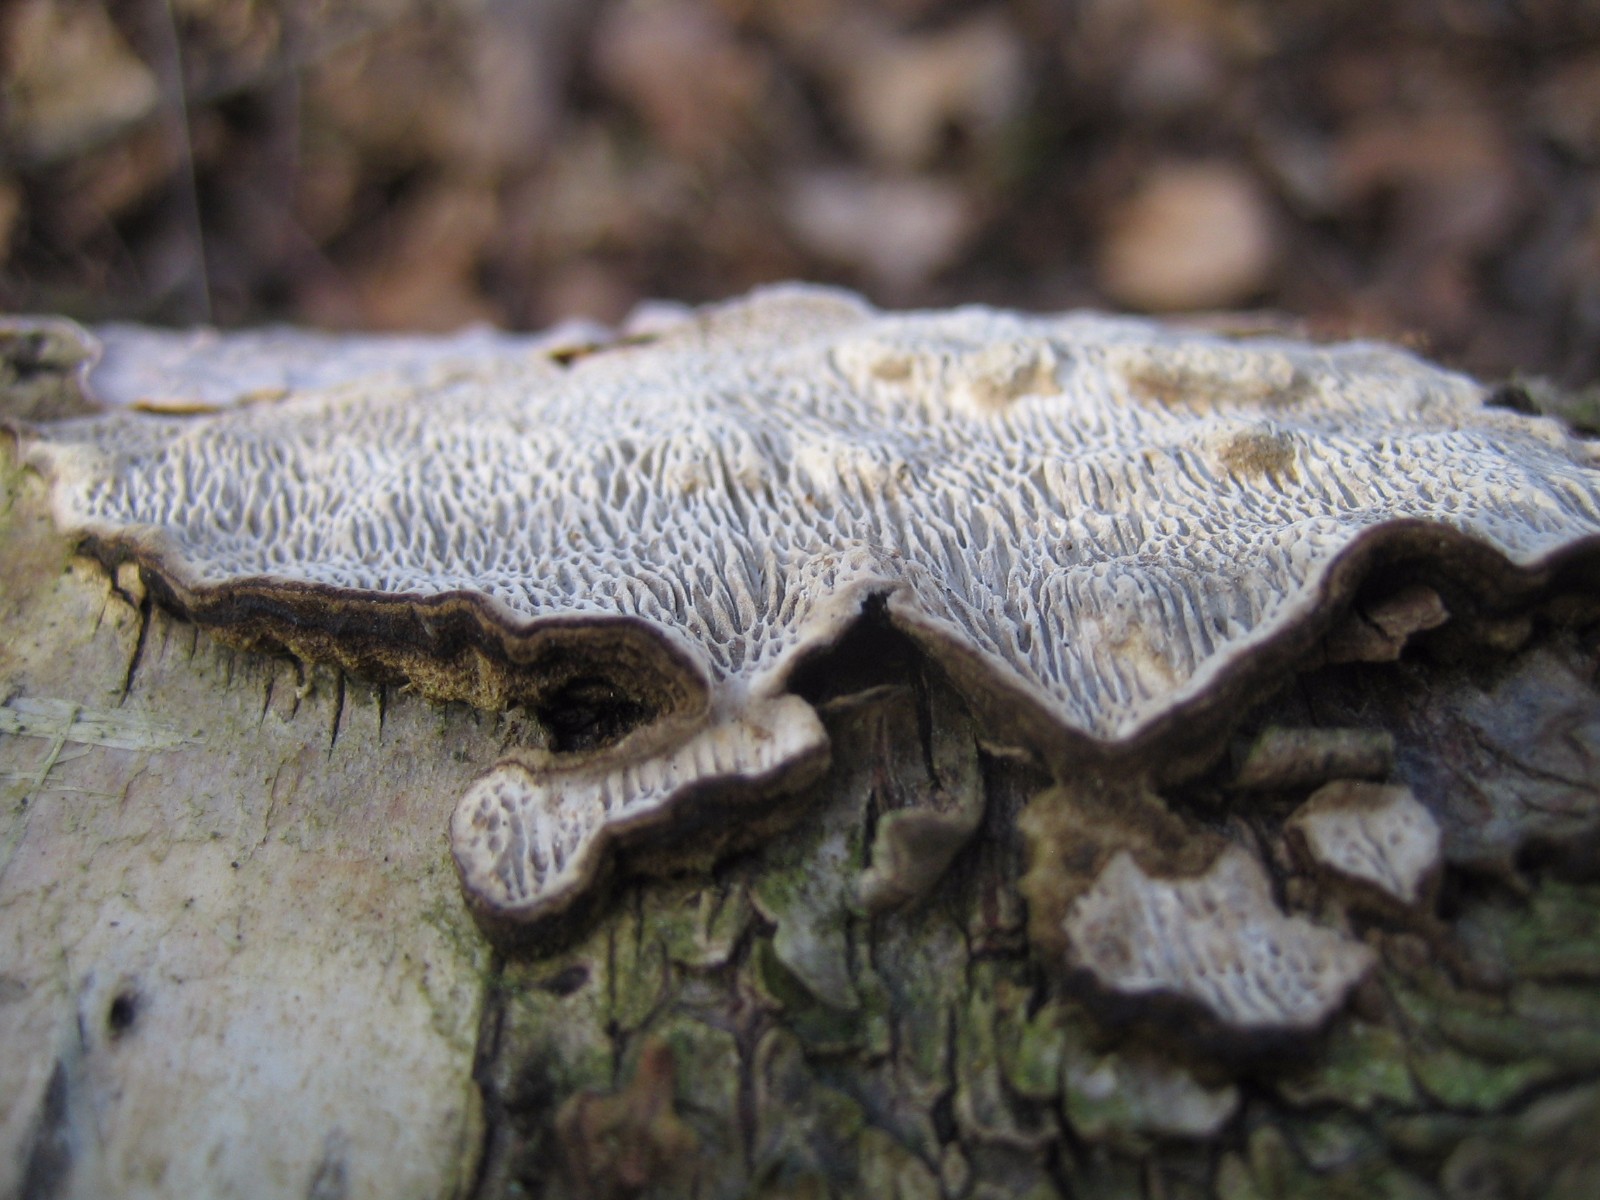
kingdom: Fungi
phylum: Basidiomycota
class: Agaricomycetes
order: Polyporales
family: Polyporaceae
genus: Podofomes
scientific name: Podofomes mollis
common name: blød begporesvamp
